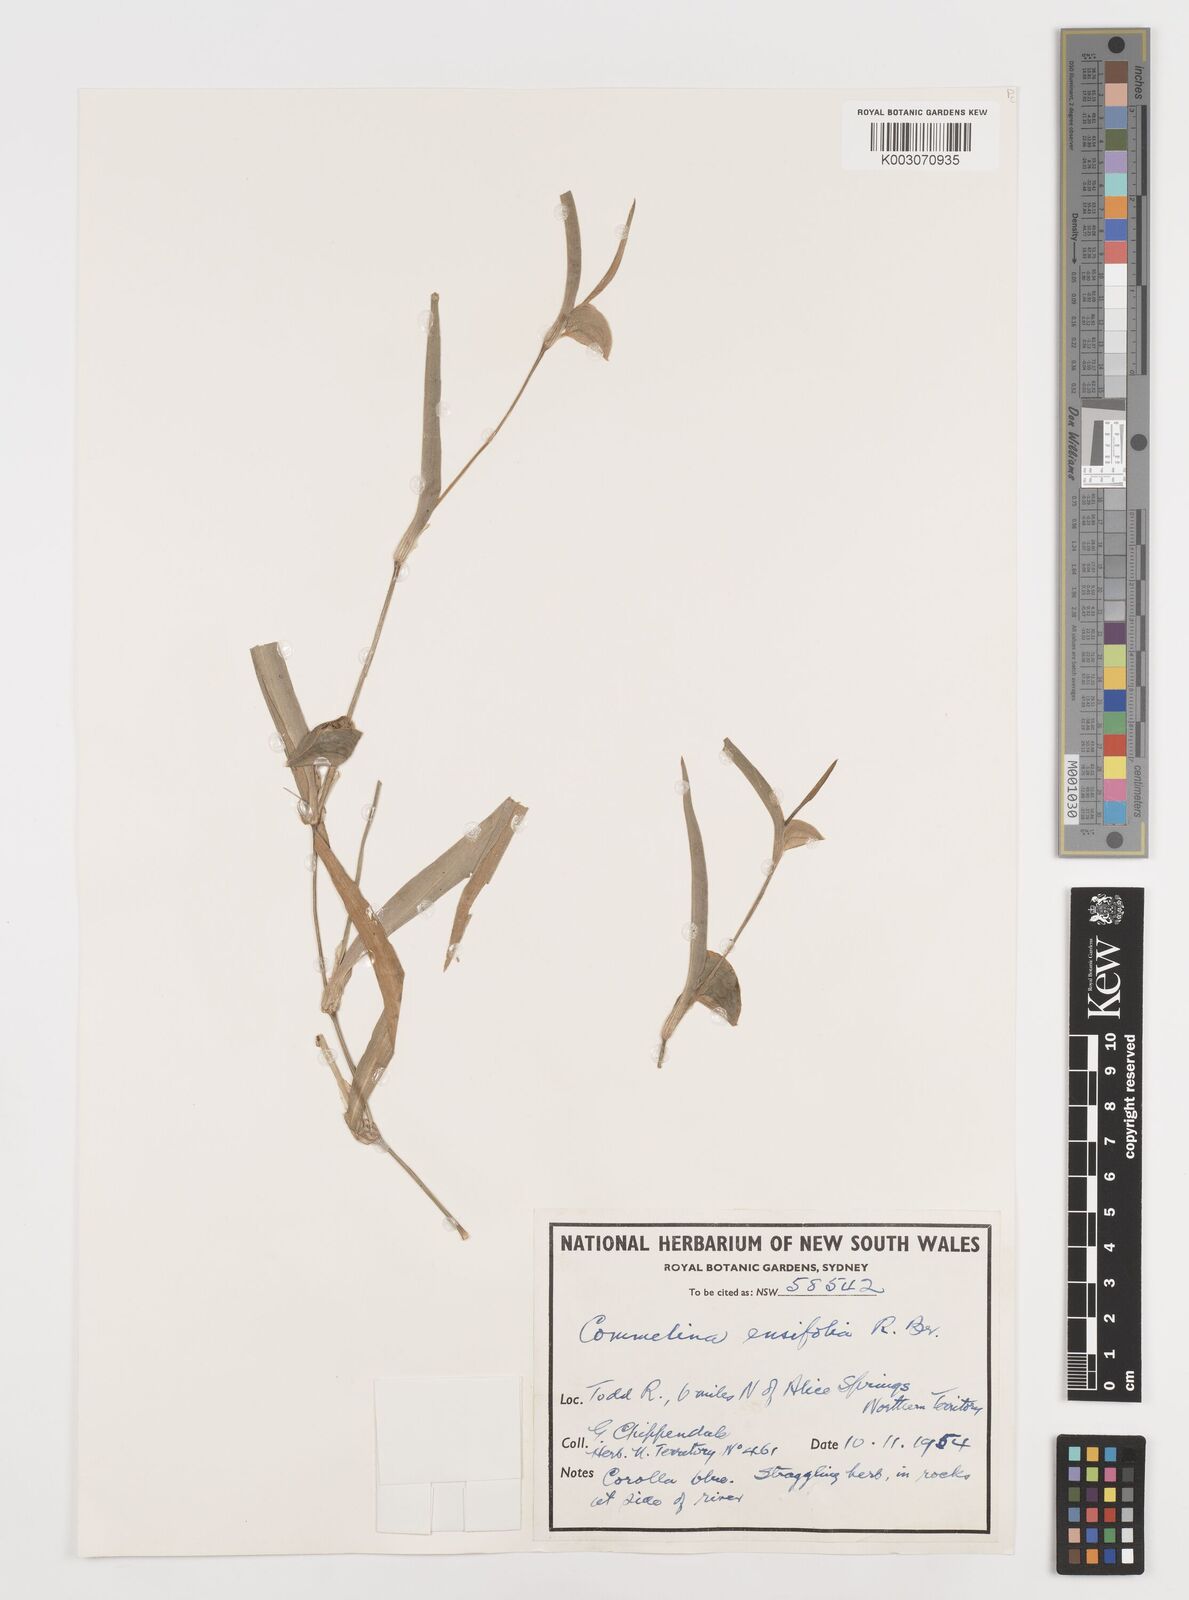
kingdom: Plantae
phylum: Tracheophyta
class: Liliopsida
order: Commelinales
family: Commelinaceae
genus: Commelina
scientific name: Commelina ensifolia
